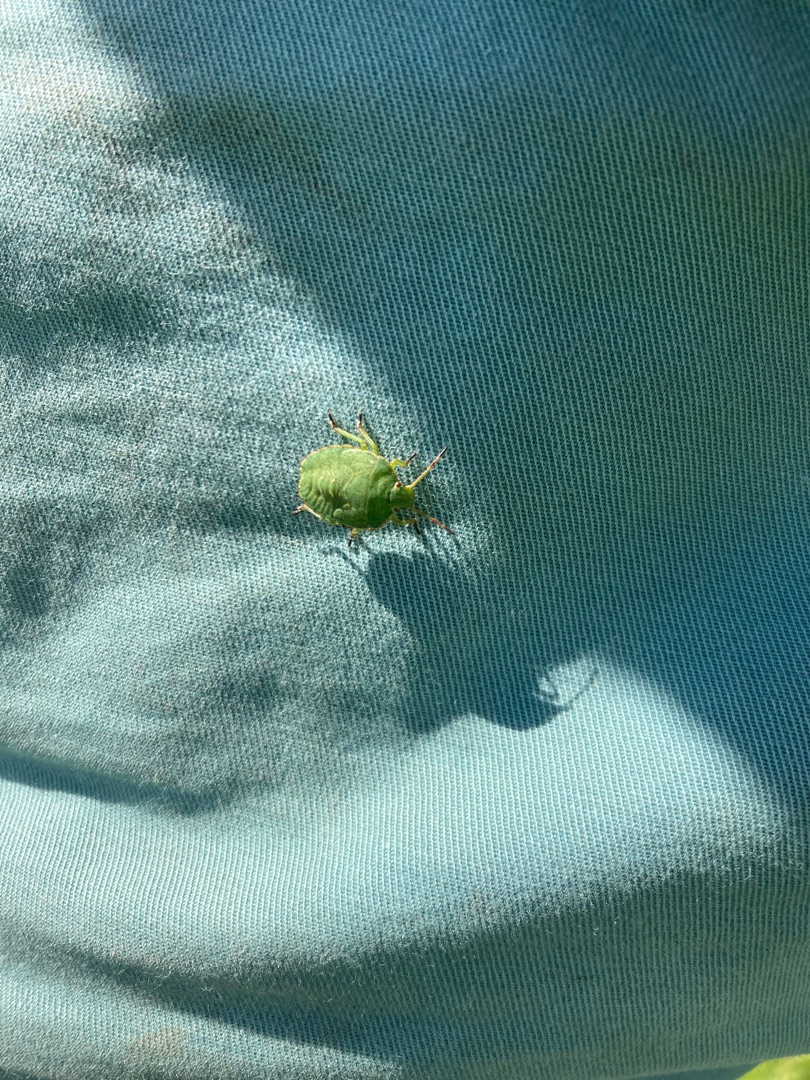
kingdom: Animalia
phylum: Arthropoda
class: Insecta
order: Hemiptera
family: Pentatomidae
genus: Palomena
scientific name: Palomena prasina
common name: Grøn bredtæge
